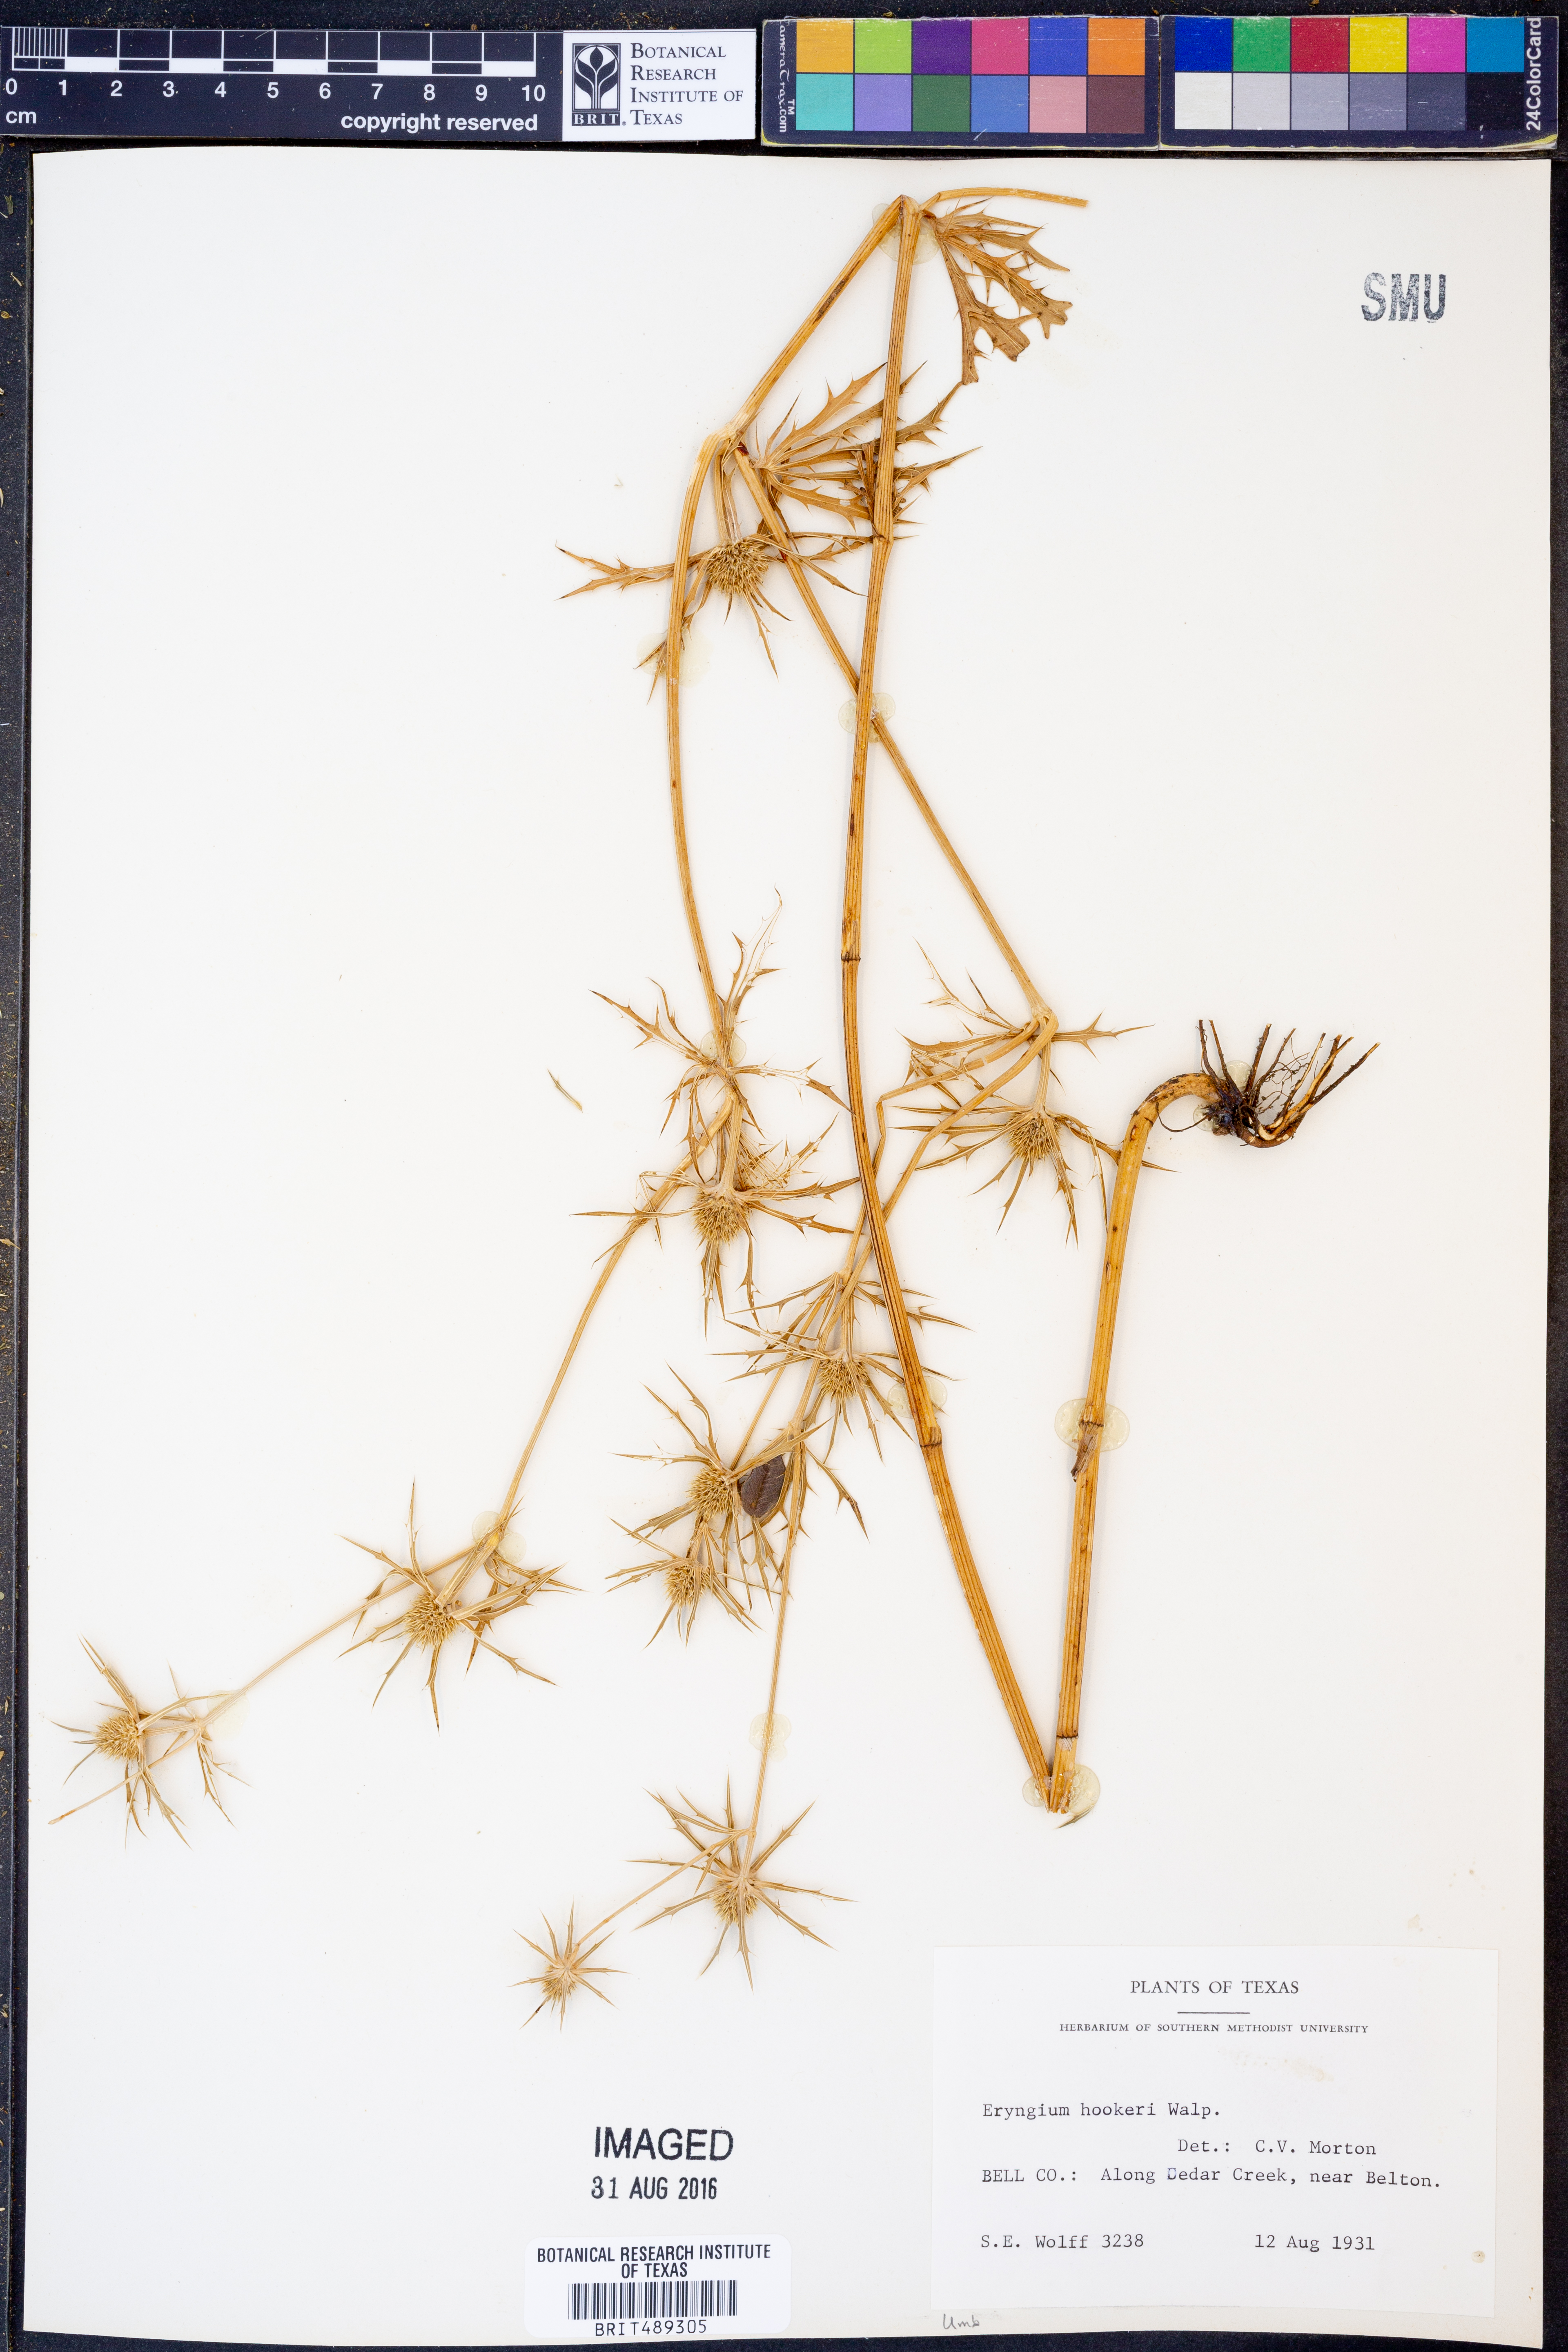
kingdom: Plantae
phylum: Tracheophyta
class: Magnoliopsida
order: Apiales
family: Apiaceae
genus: Eryngium
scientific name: Eryngium hookeri
